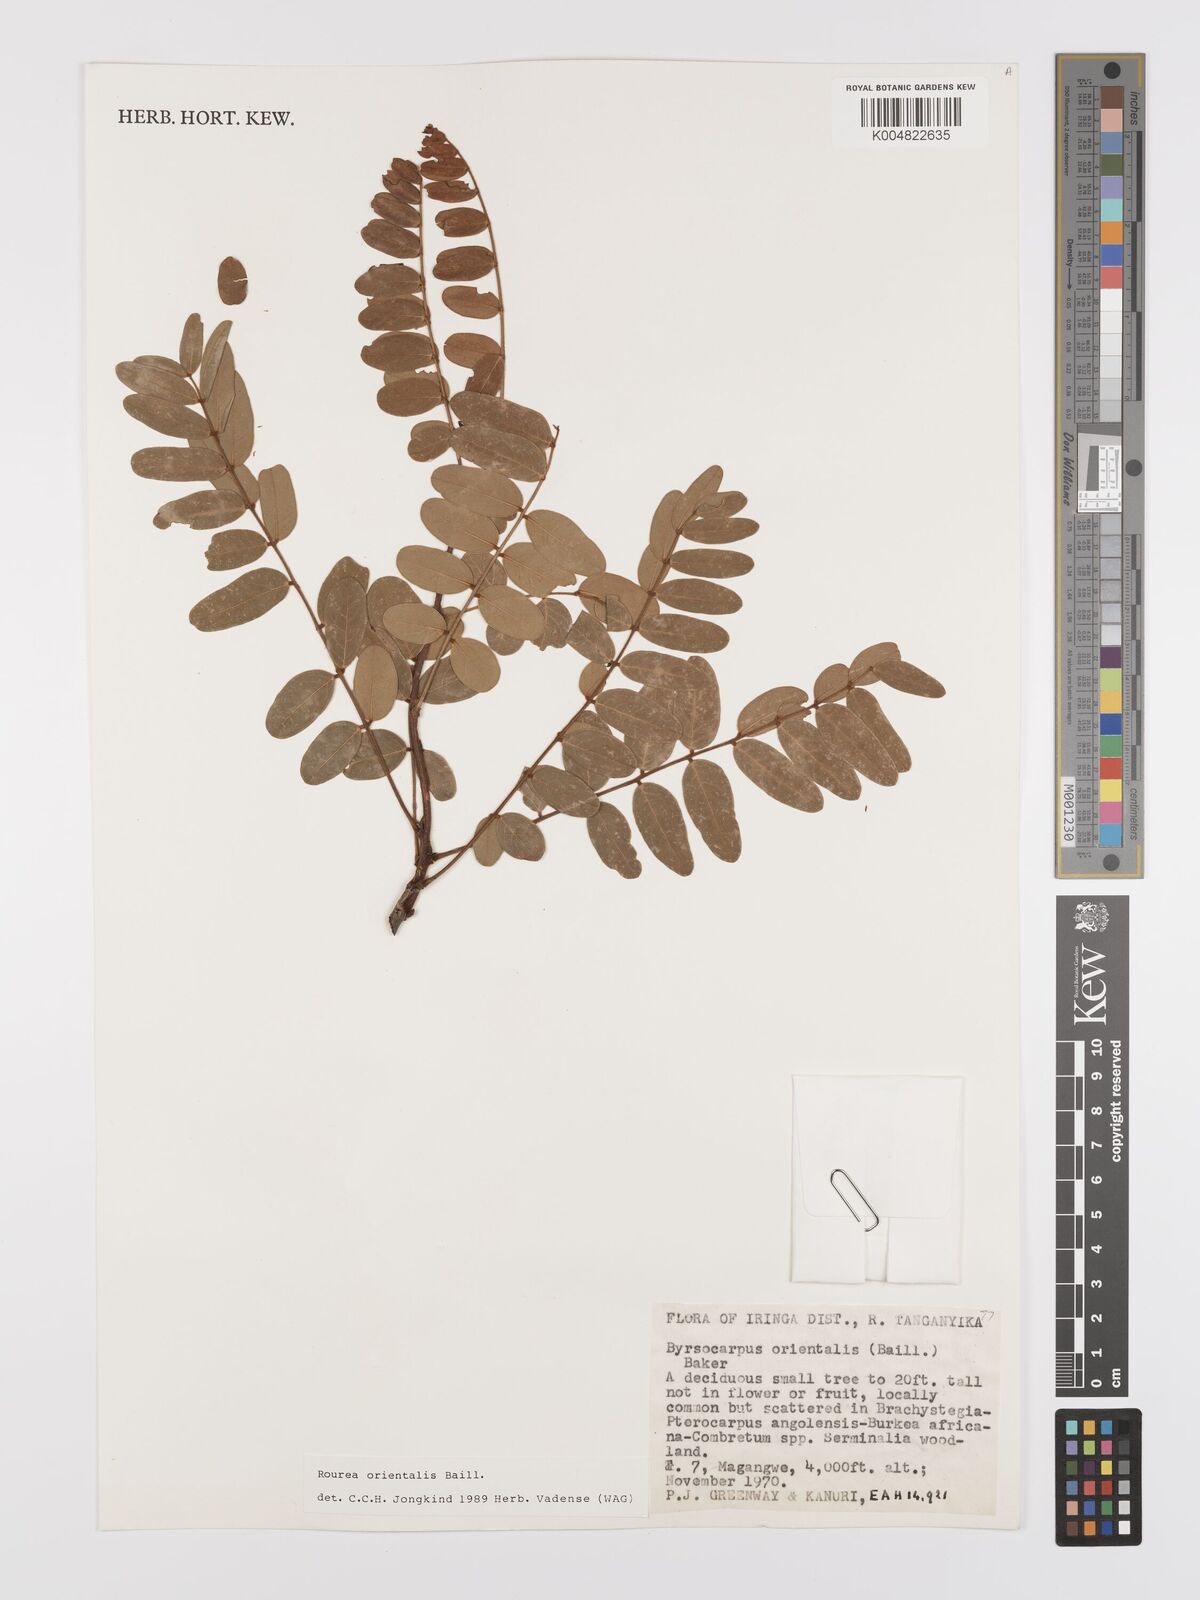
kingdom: Plantae
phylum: Tracheophyta
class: Magnoliopsida
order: Oxalidales
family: Connaraceae
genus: Rourea
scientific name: Rourea orientalis
